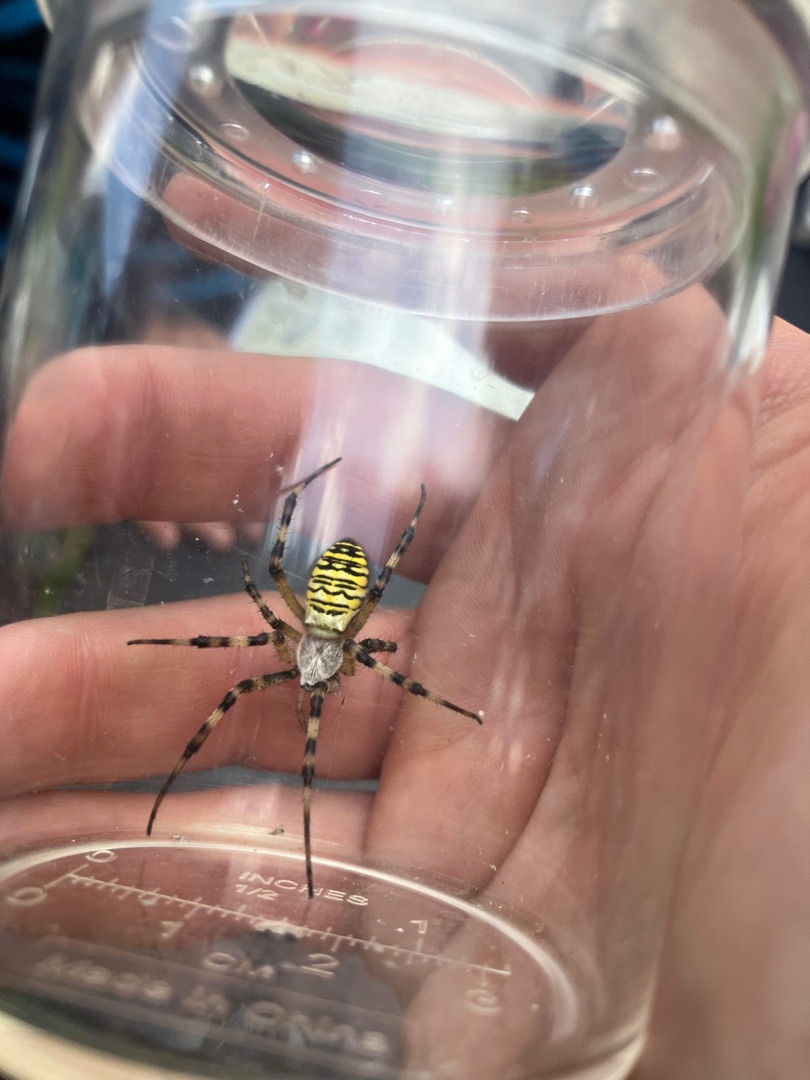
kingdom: Animalia
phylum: Arthropoda
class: Arachnida
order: Araneae
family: Araneidae
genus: Argiope
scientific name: Argiope bruennichi
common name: Hvepseedderkop
